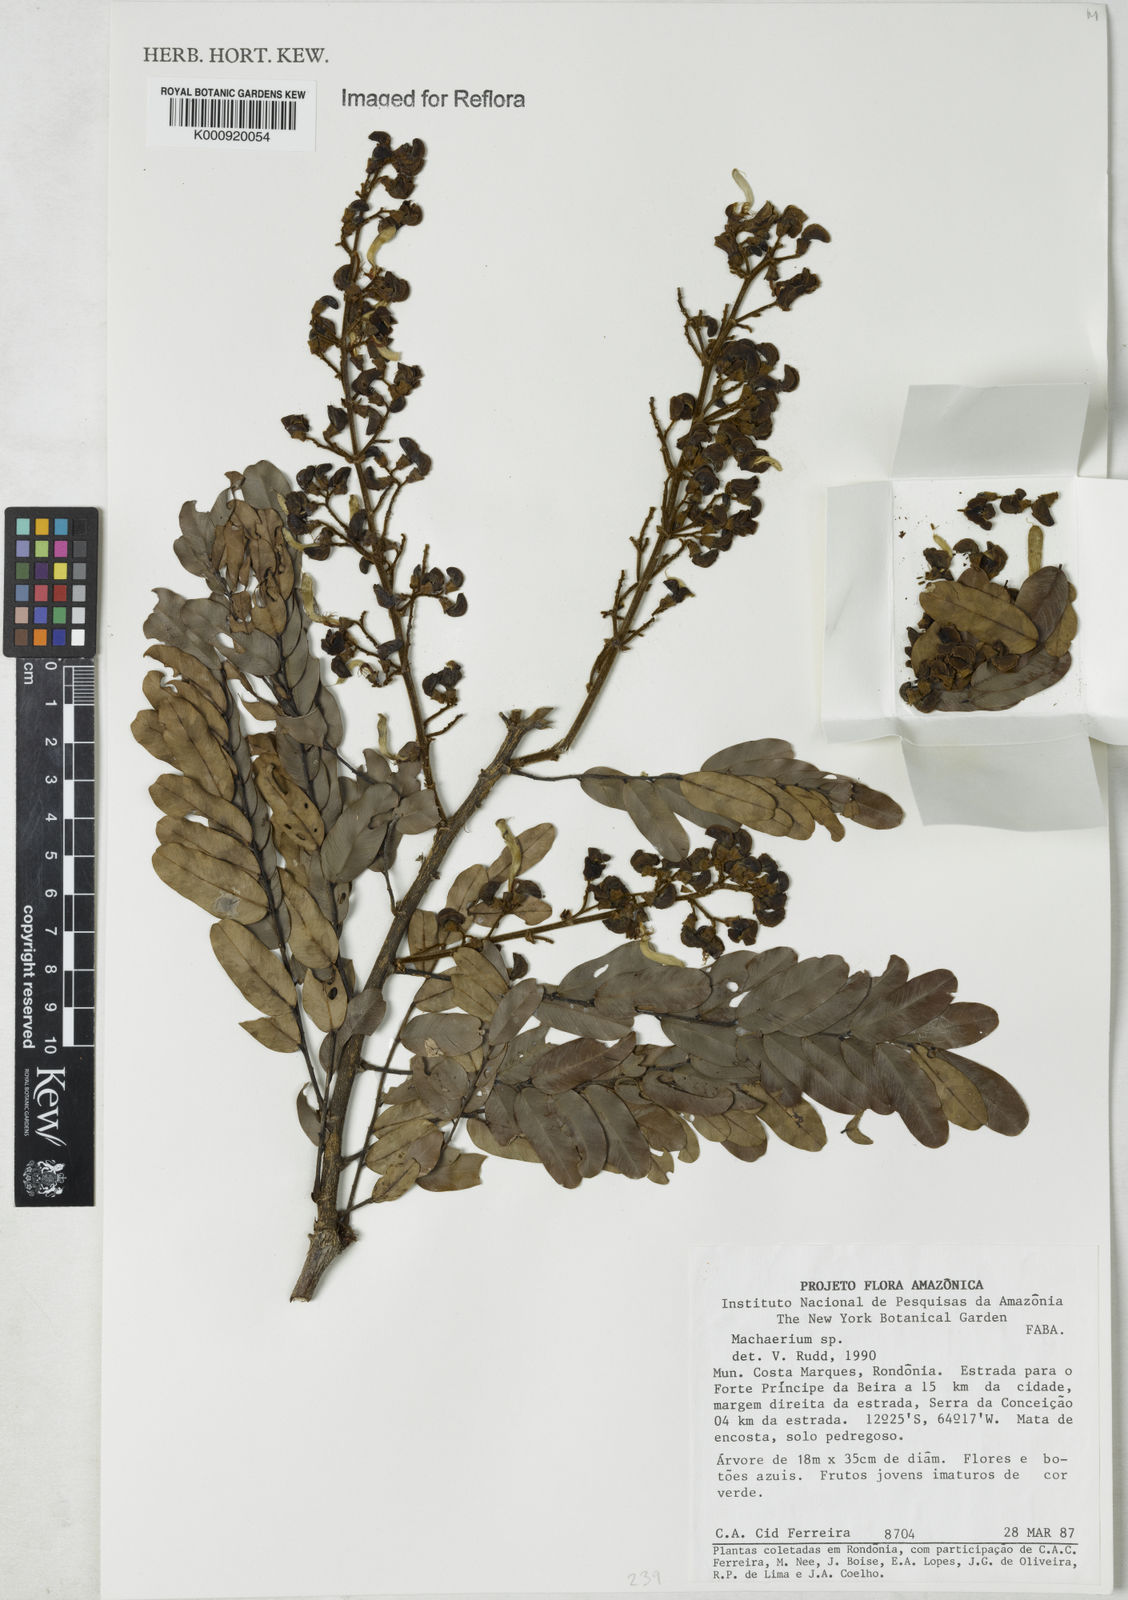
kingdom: Plantae
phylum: Tracheophyta
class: Magnoliopsida
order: Fabales
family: Fabaceae
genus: Machaerium
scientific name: Machaerium
